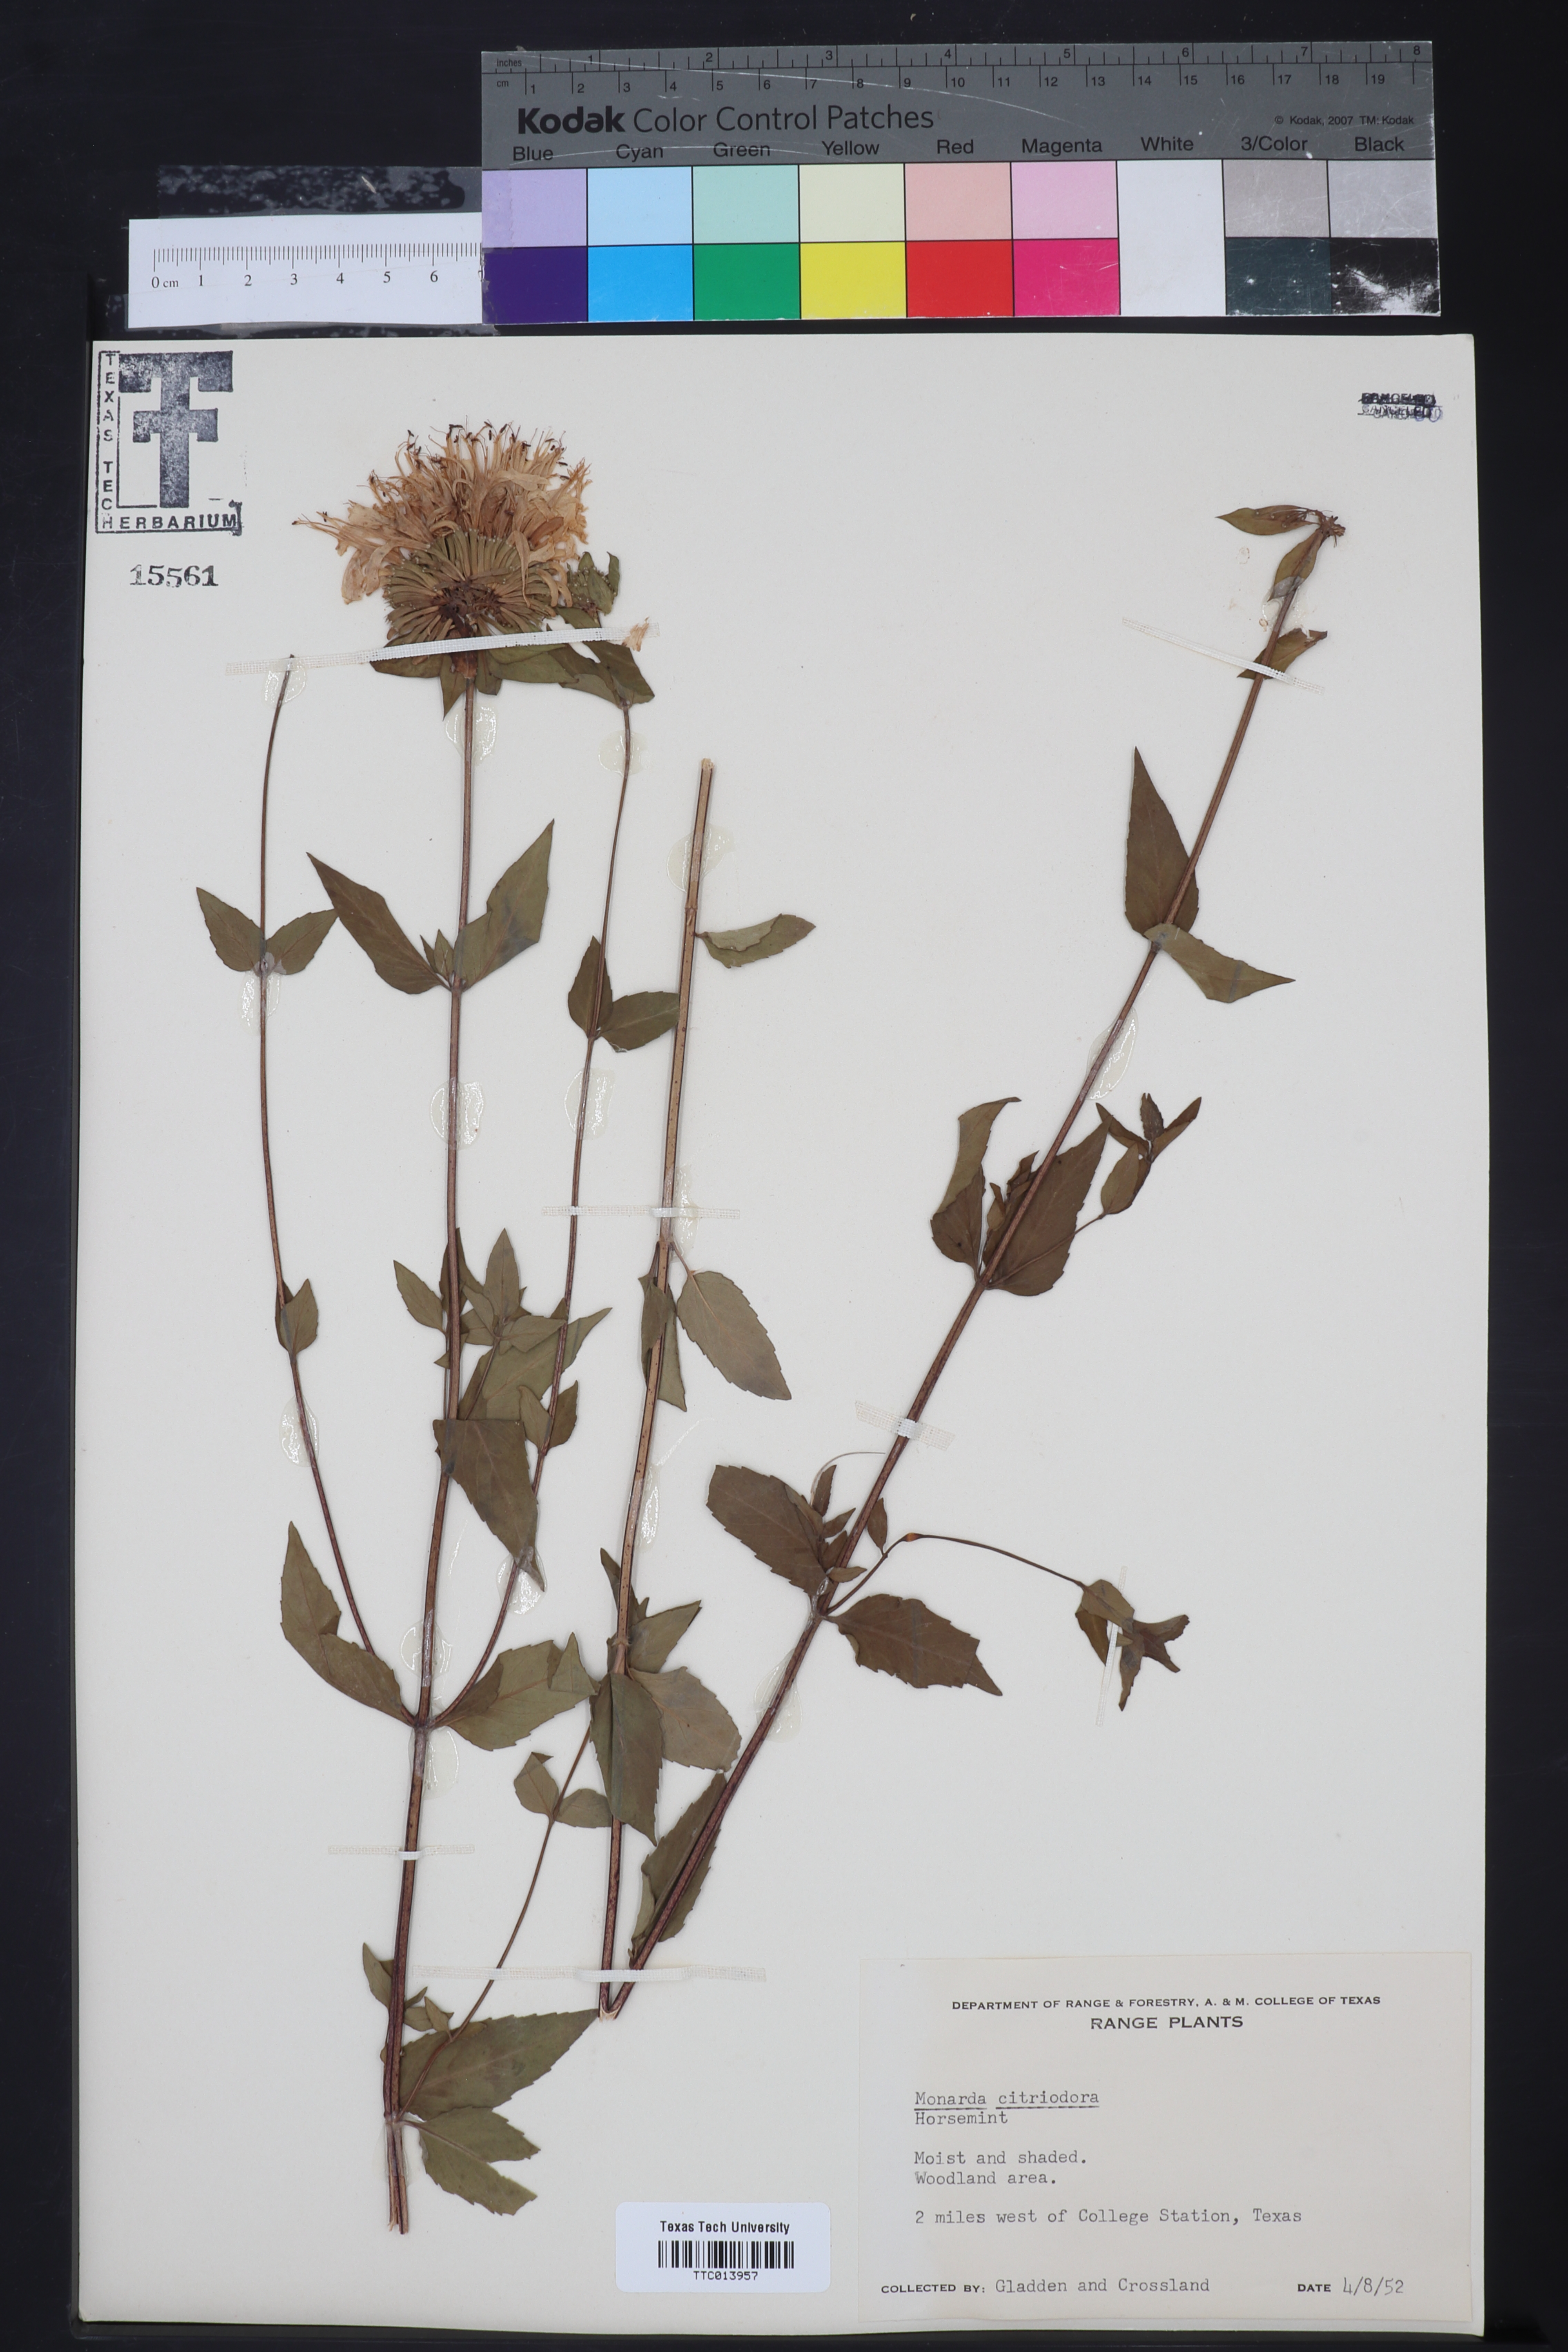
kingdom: Plantae
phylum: Tracheophyta
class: Magnoliopsida
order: Lamiales
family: Lamiaceae
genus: Monarda
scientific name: Monarda citriodora
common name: Lemon beebalm
